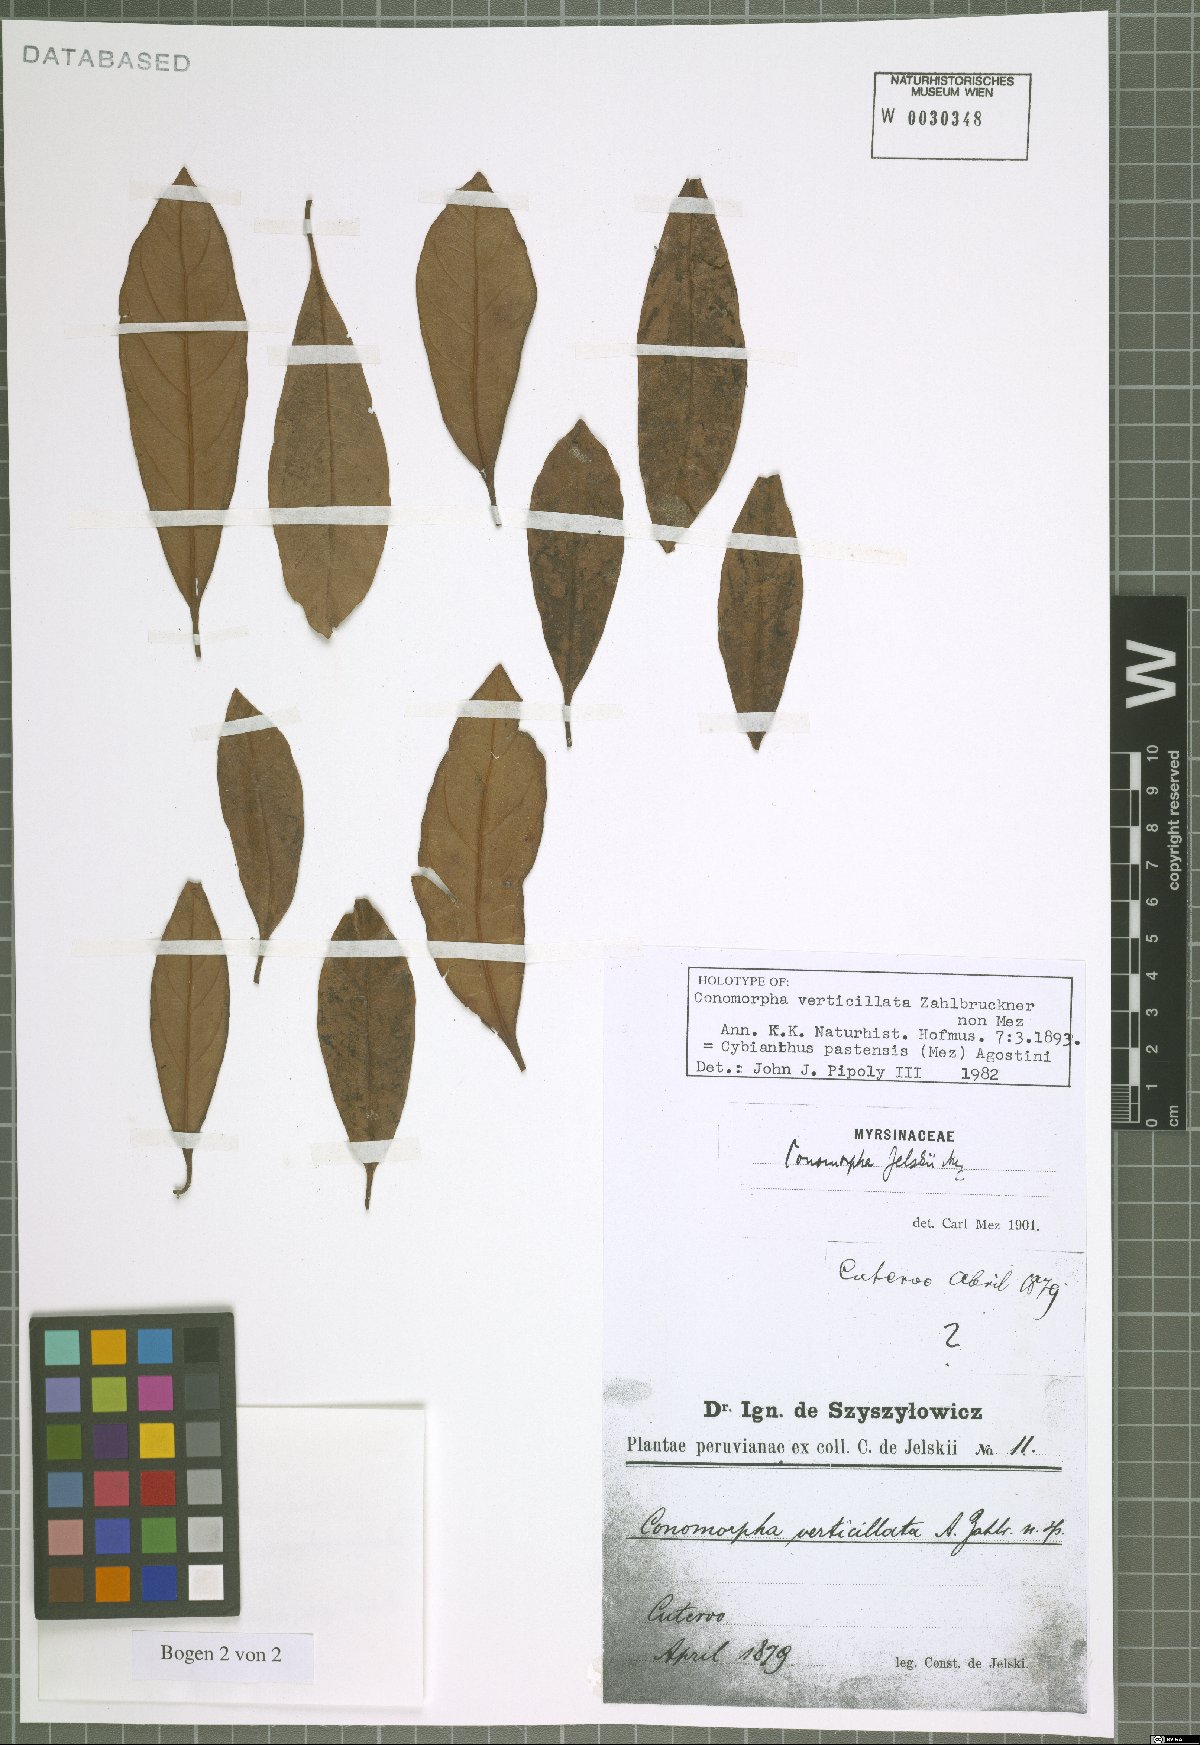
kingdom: Plantae
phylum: Tracheophyta
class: Magnoliopsida
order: Ericales
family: Primulaceae
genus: Cybianthus
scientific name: Cybianthus pastensis
